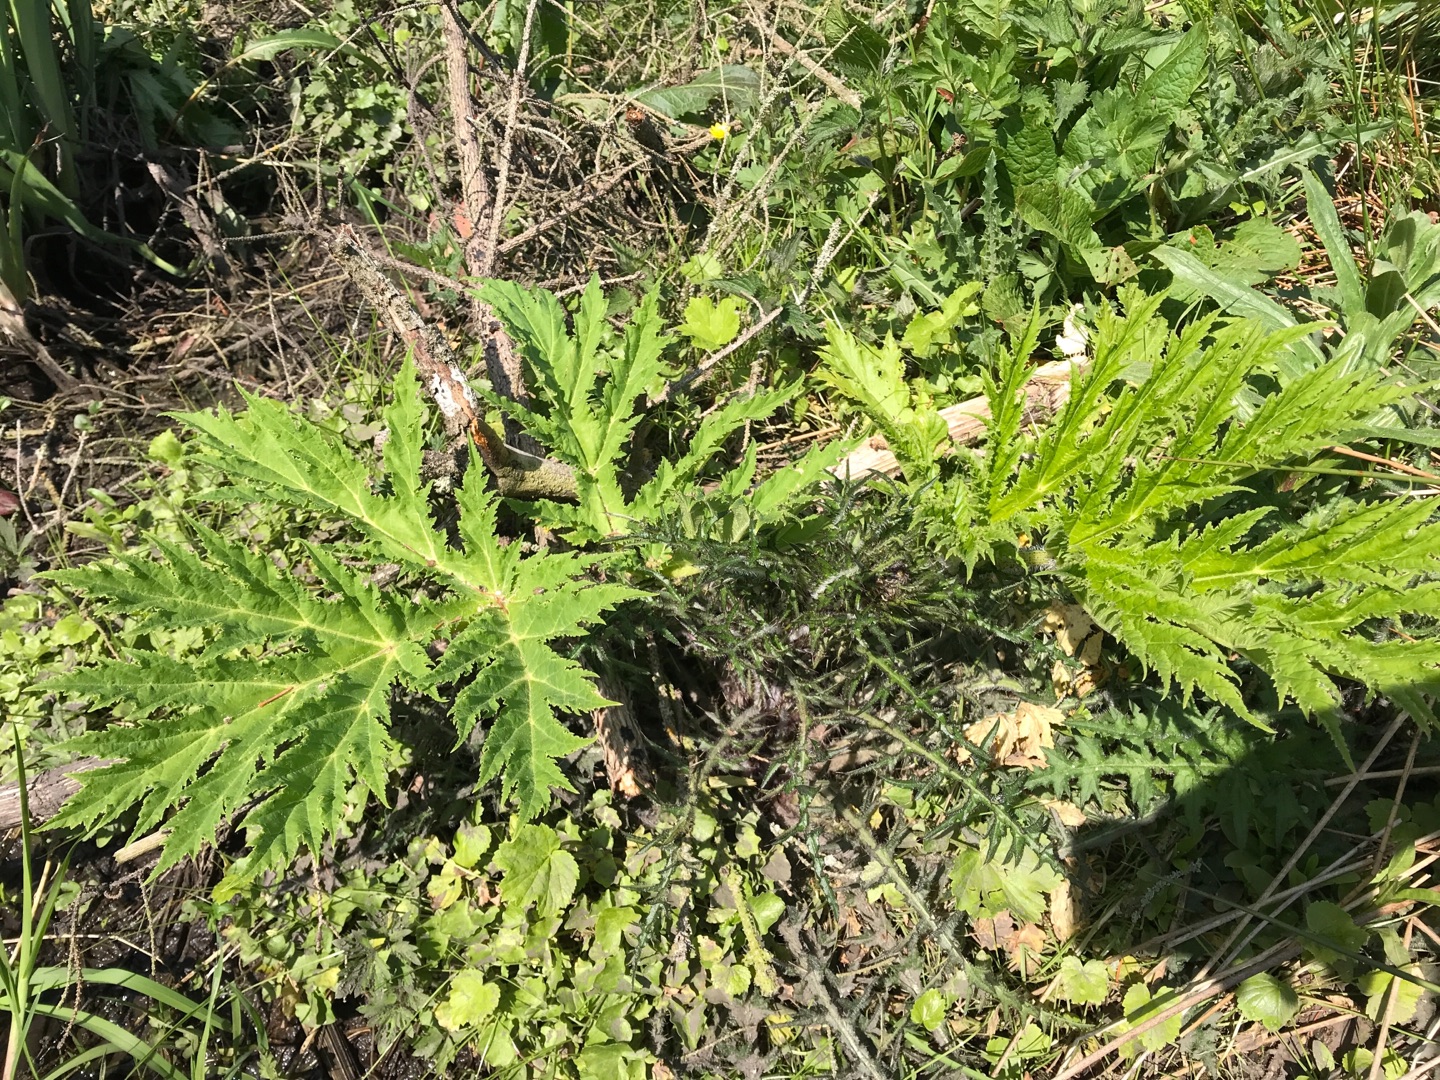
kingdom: Plantae
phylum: Tracheophyta
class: Magnoliopsida
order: Apiales
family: Apiaceae
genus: Heracleum
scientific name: Heracleum mantegazzianum
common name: Kæmpe-bjørneklo
